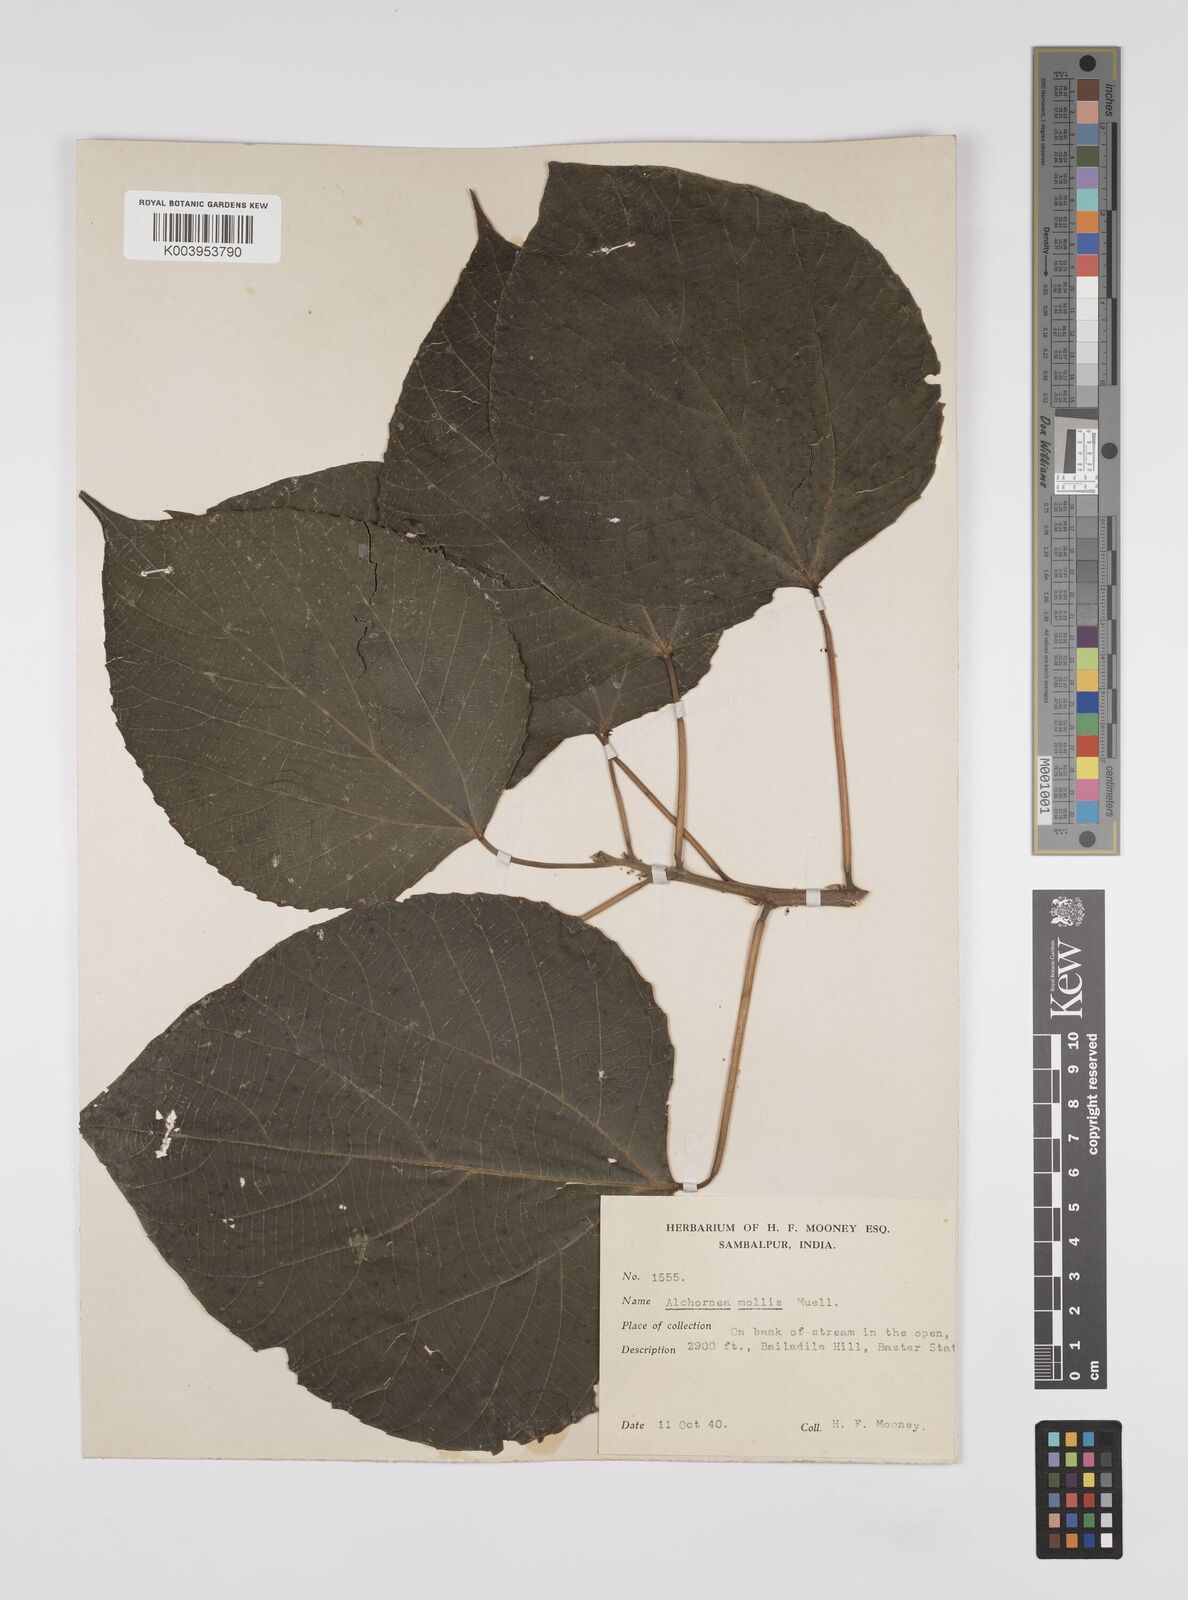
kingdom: Plantae
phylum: Tracheophyta
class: Magnoliopsida
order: Malpighiales
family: Euphorbiaceae
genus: Alchornea
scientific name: Alchornea mollis
